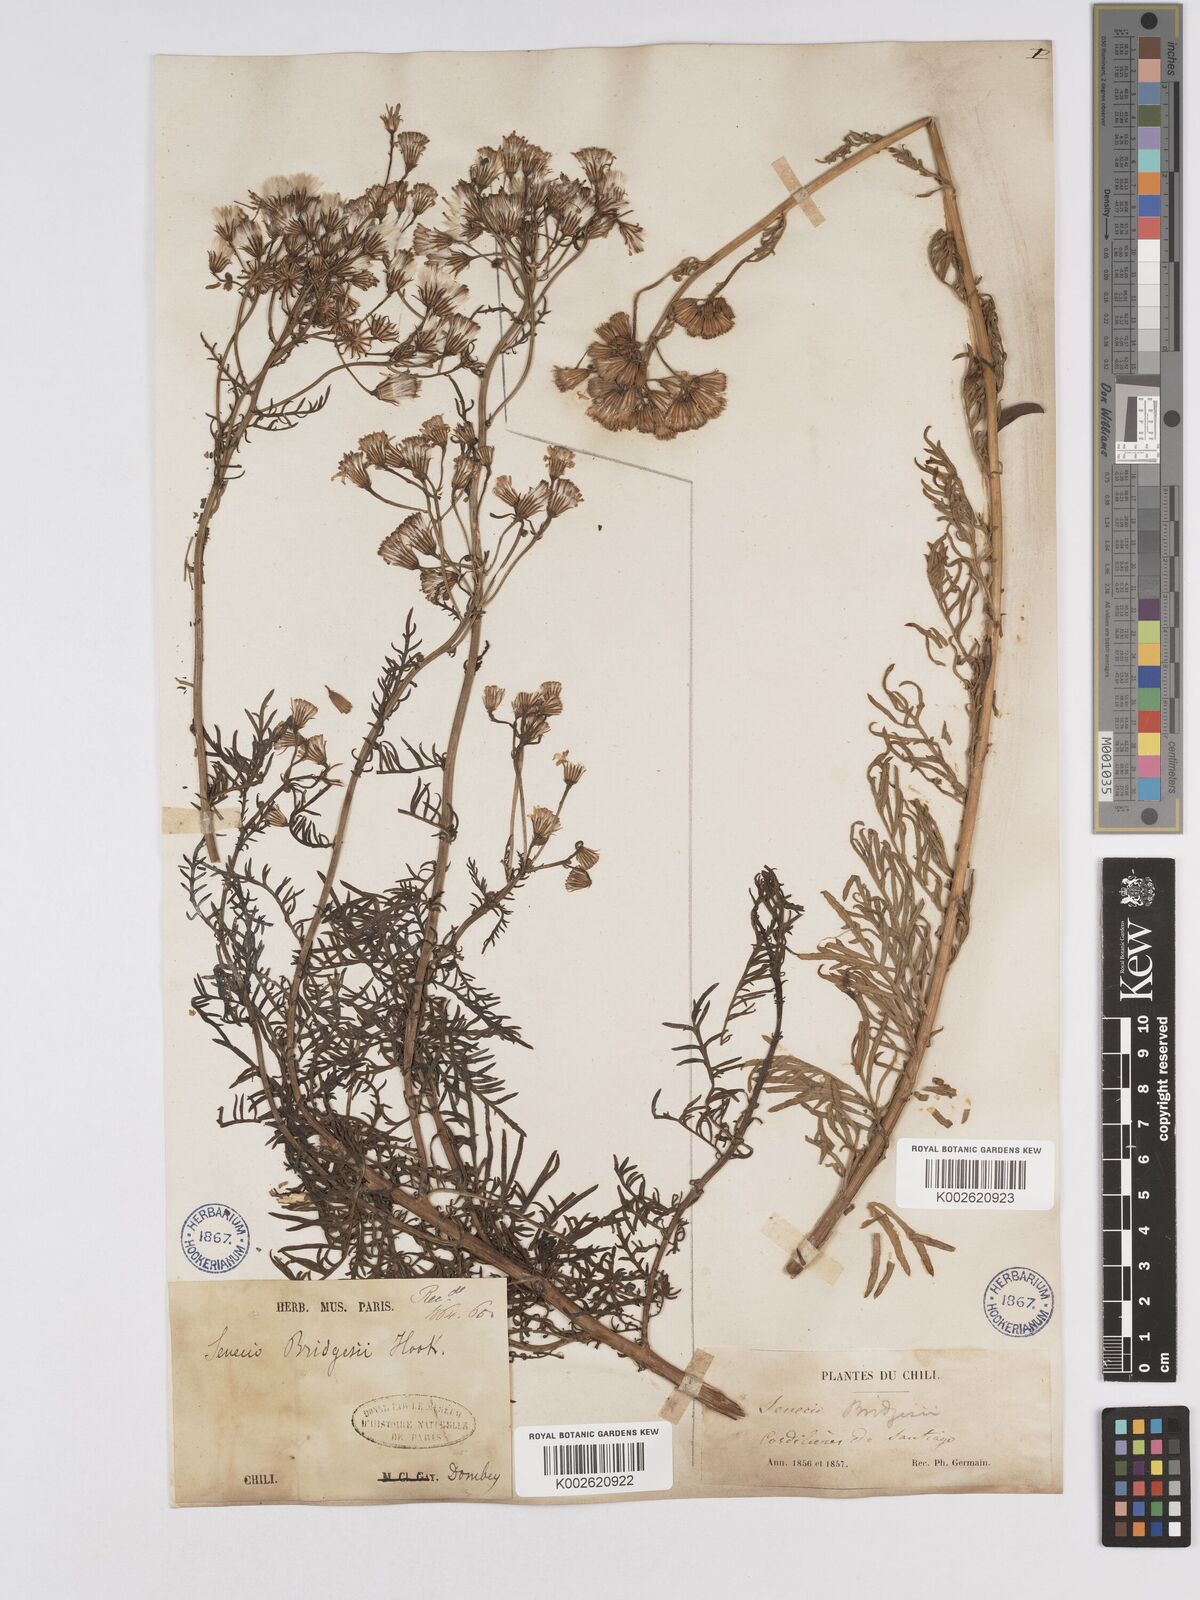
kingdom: Plantae
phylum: Tracheophyta
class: Magnoliopsida
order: Asterales
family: Asteraceae
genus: Senecio
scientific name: Senecio bridgesii
